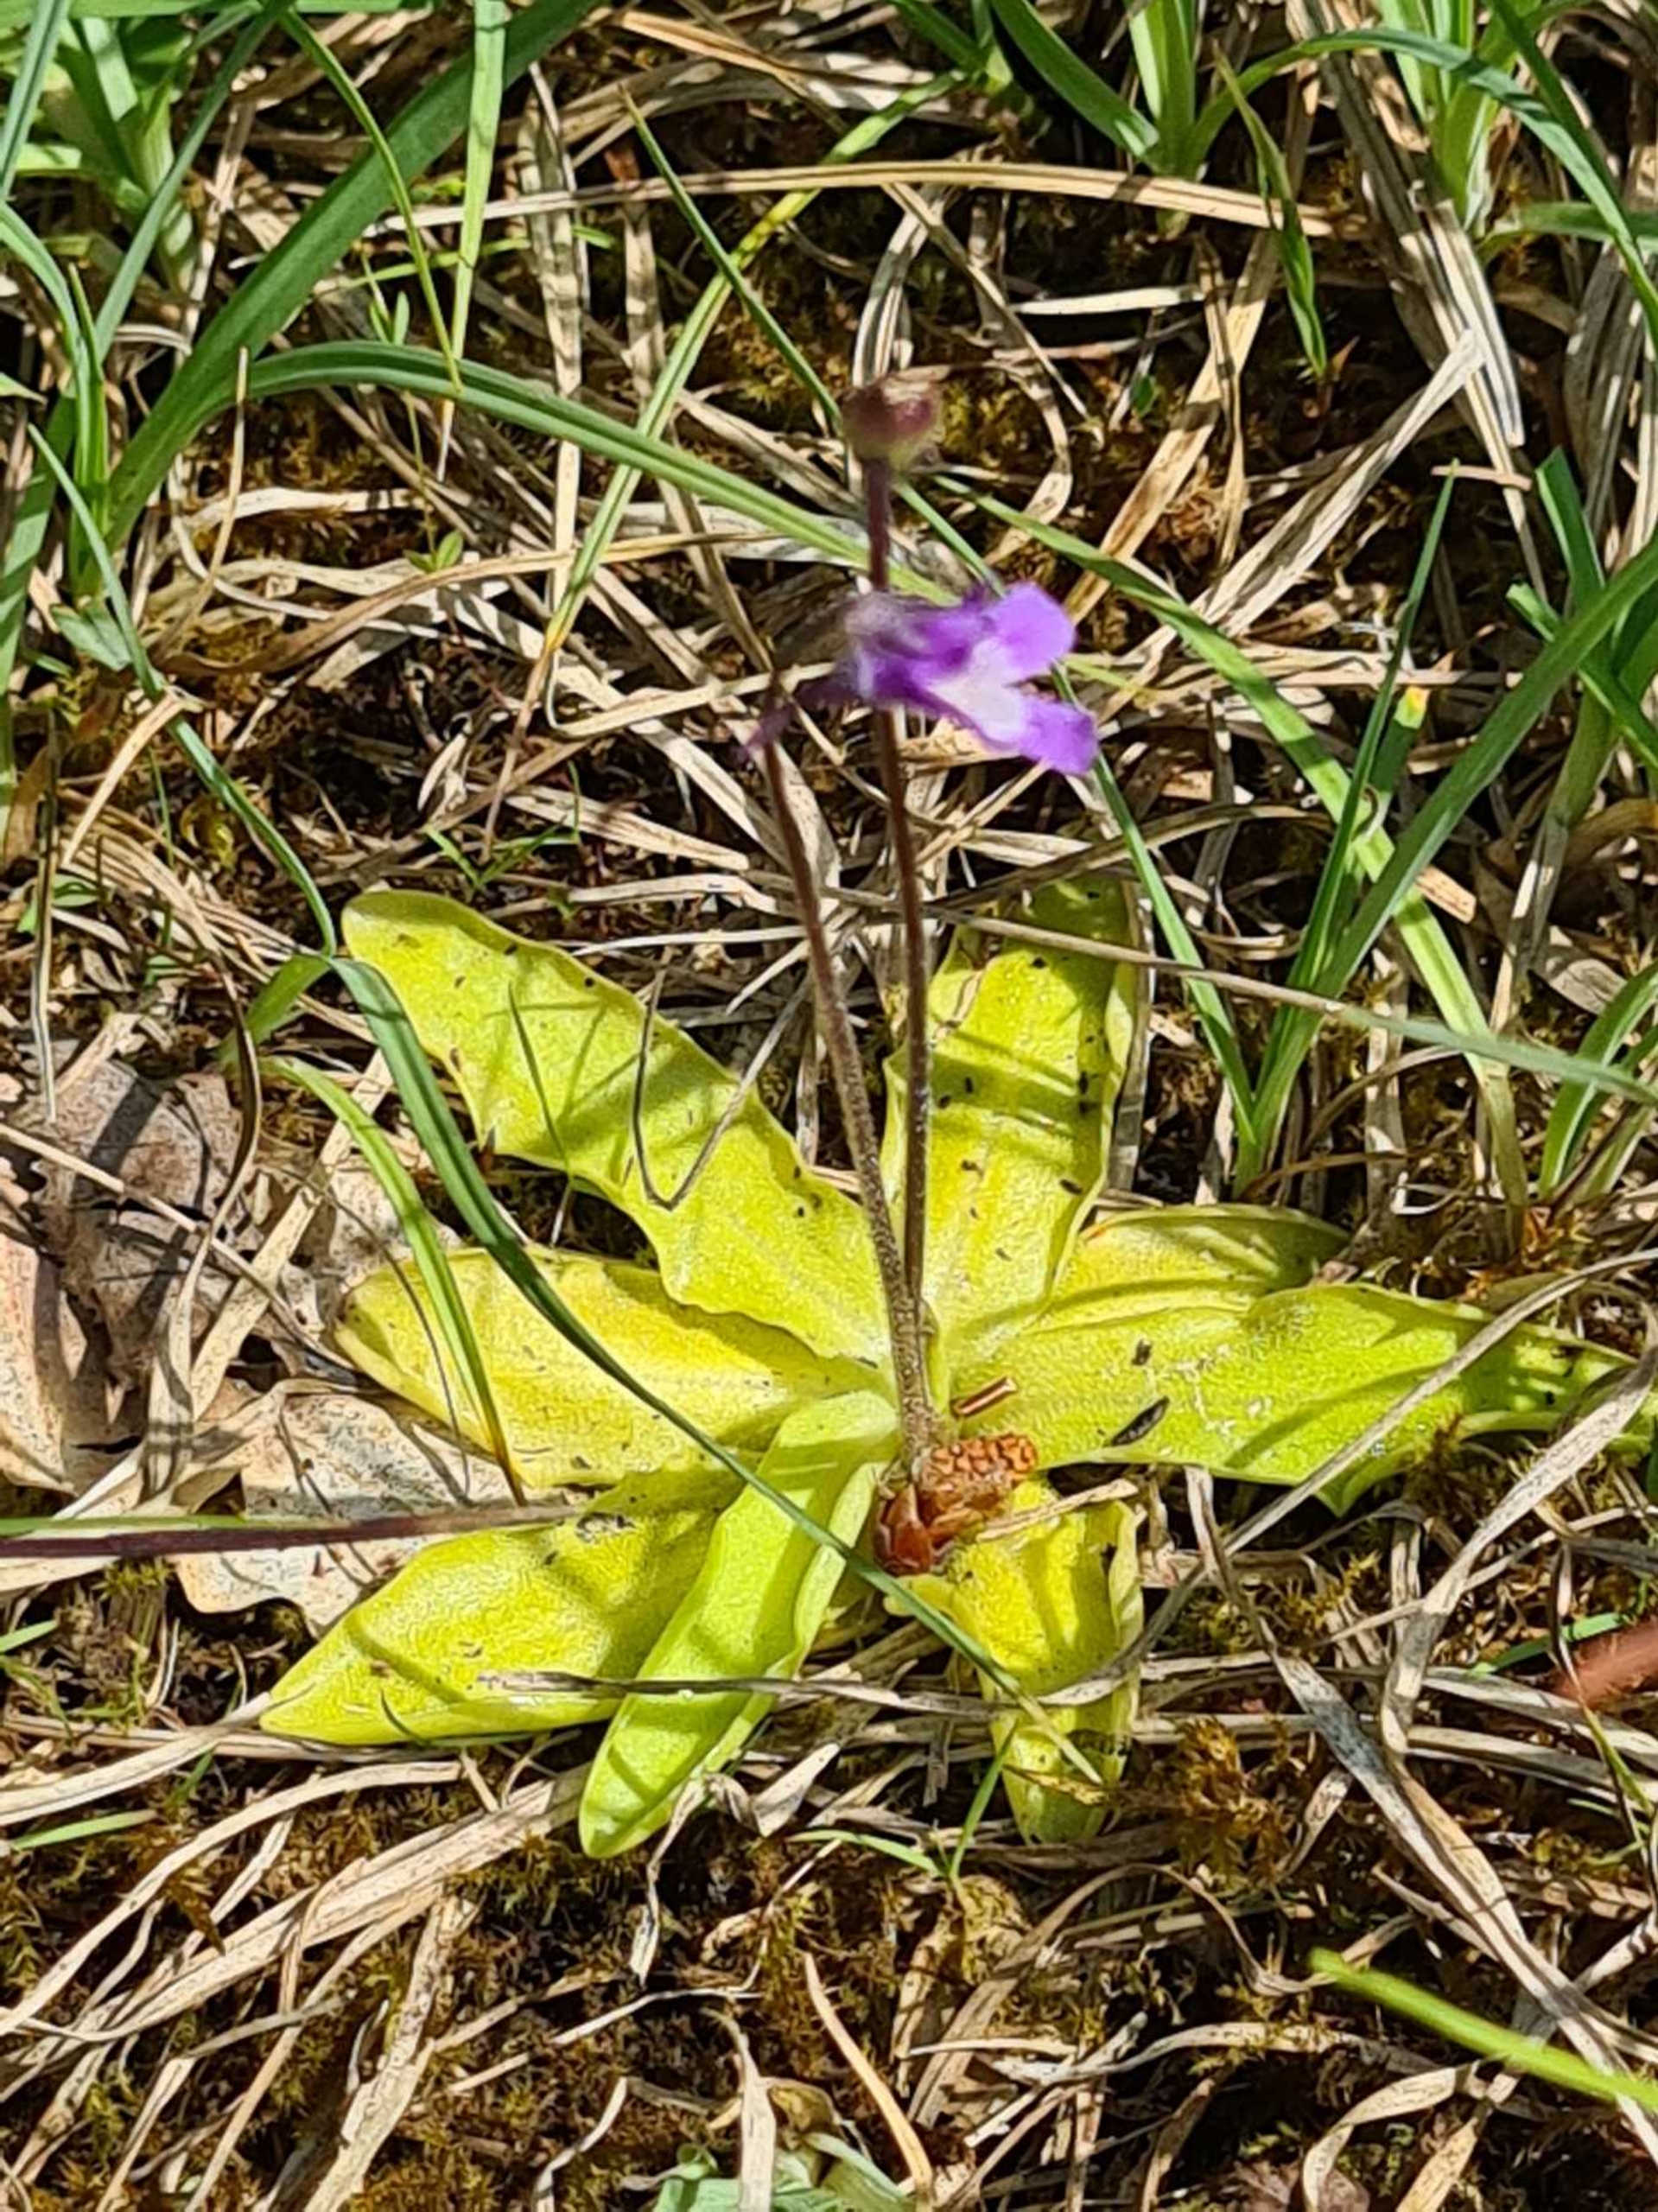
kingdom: Plantae
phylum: Tracheophyta
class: Magnoliopsida
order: Lamiales
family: Lentibulariaceae
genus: Pinguicula
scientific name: Pinguicula vulgaris
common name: Vibefedt
